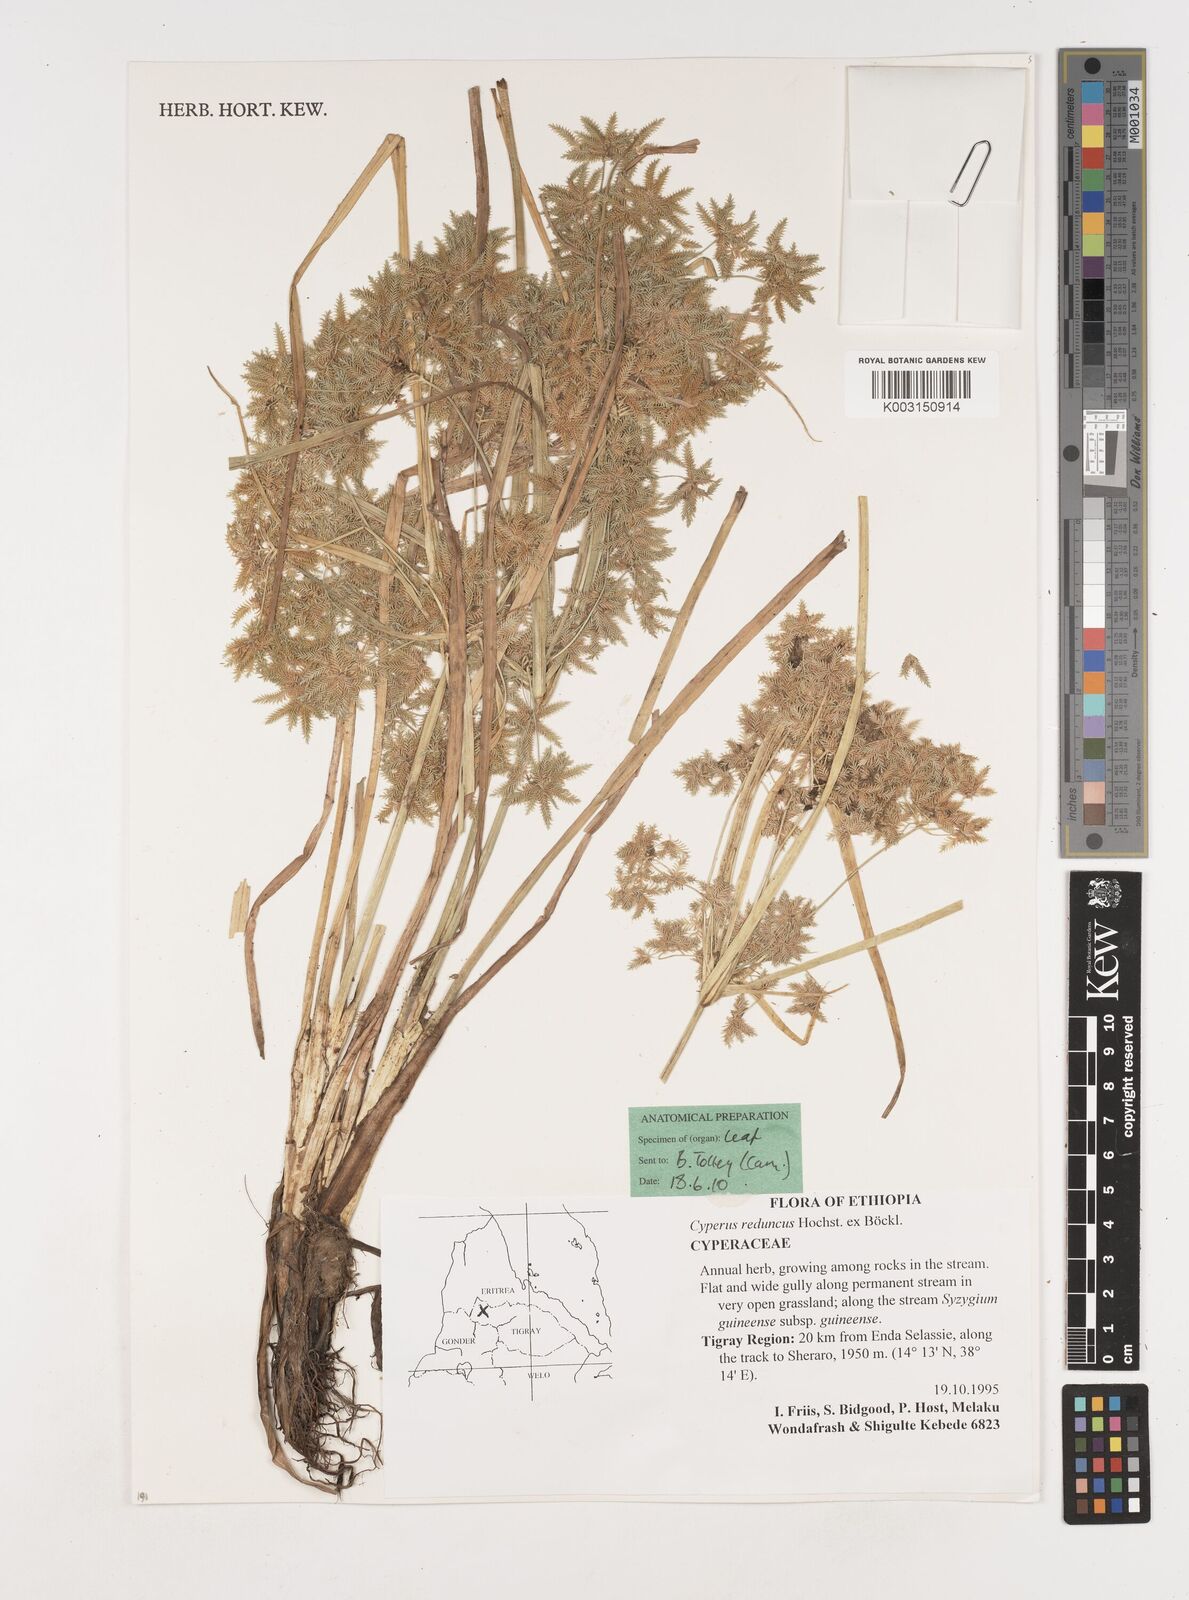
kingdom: Plantae
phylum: Tracheophyta
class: Liliopsida
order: Poales
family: Cyperaceae
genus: Cyperus
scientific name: Cyperus reduncus
